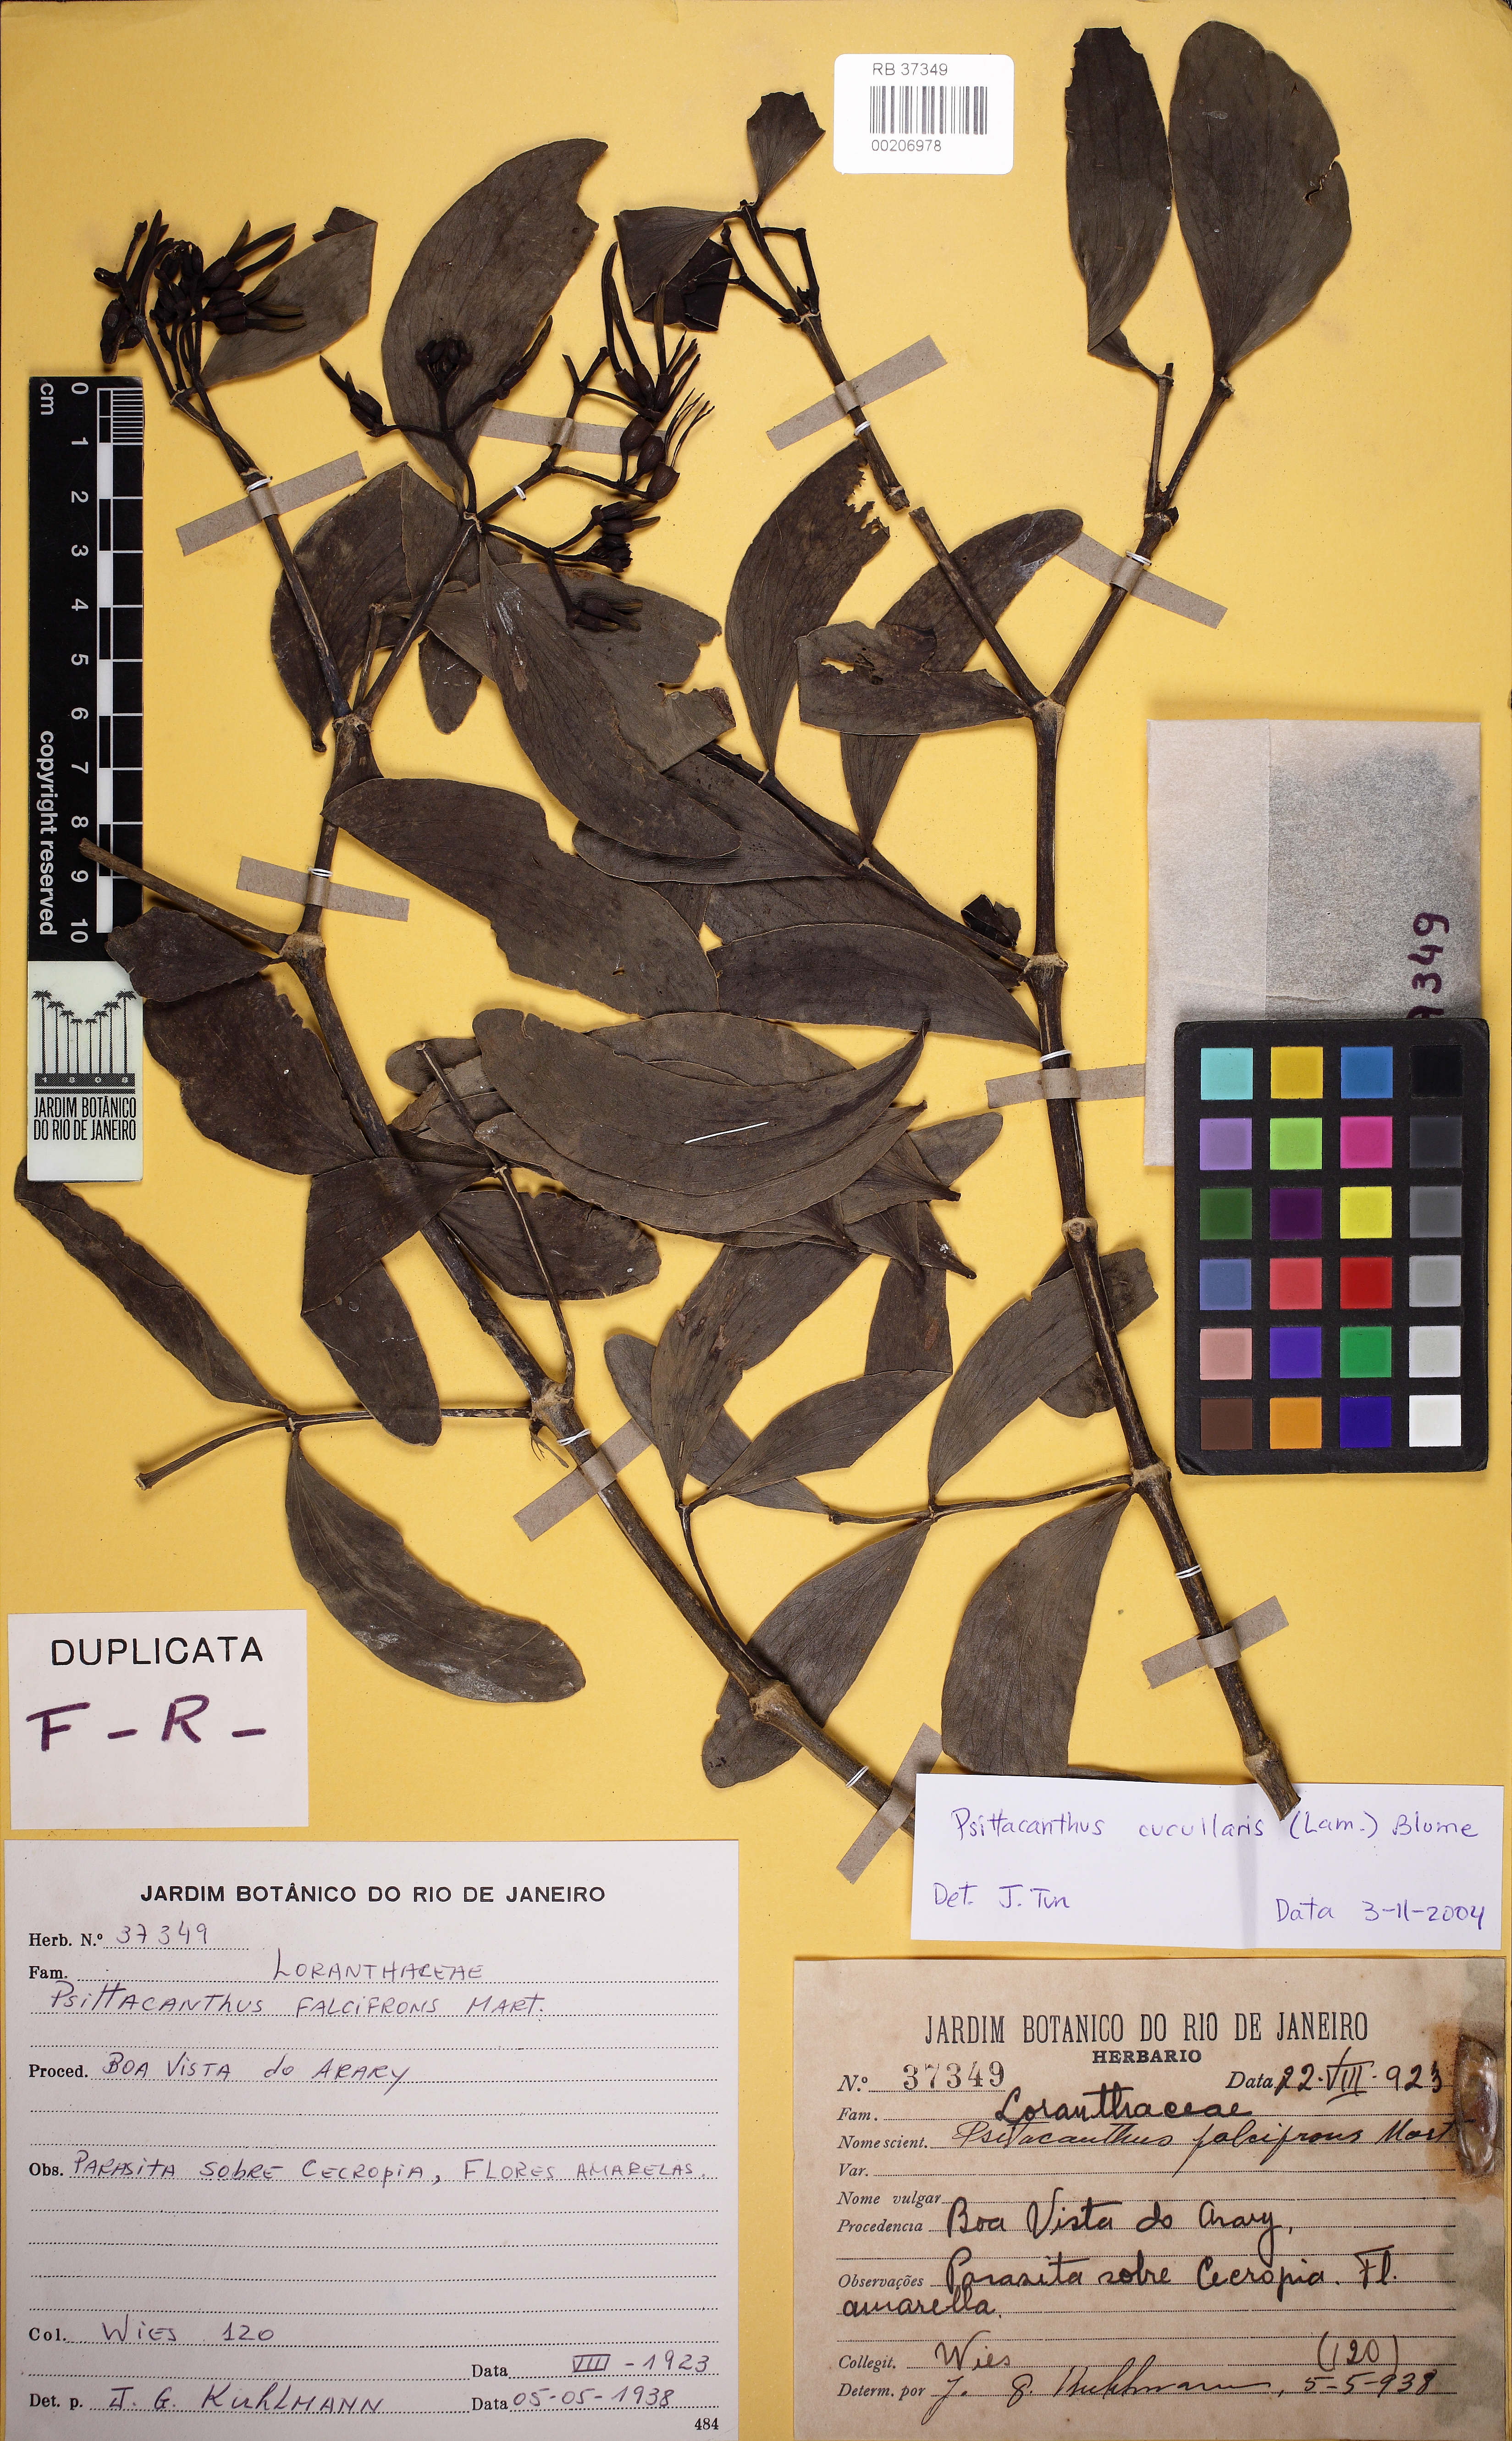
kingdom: Plantae
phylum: Tracheophyta
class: Magnoliopsida
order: Santalales
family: Loranthaceae
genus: Psittacanthus
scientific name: Psittacanthus cucullaris
